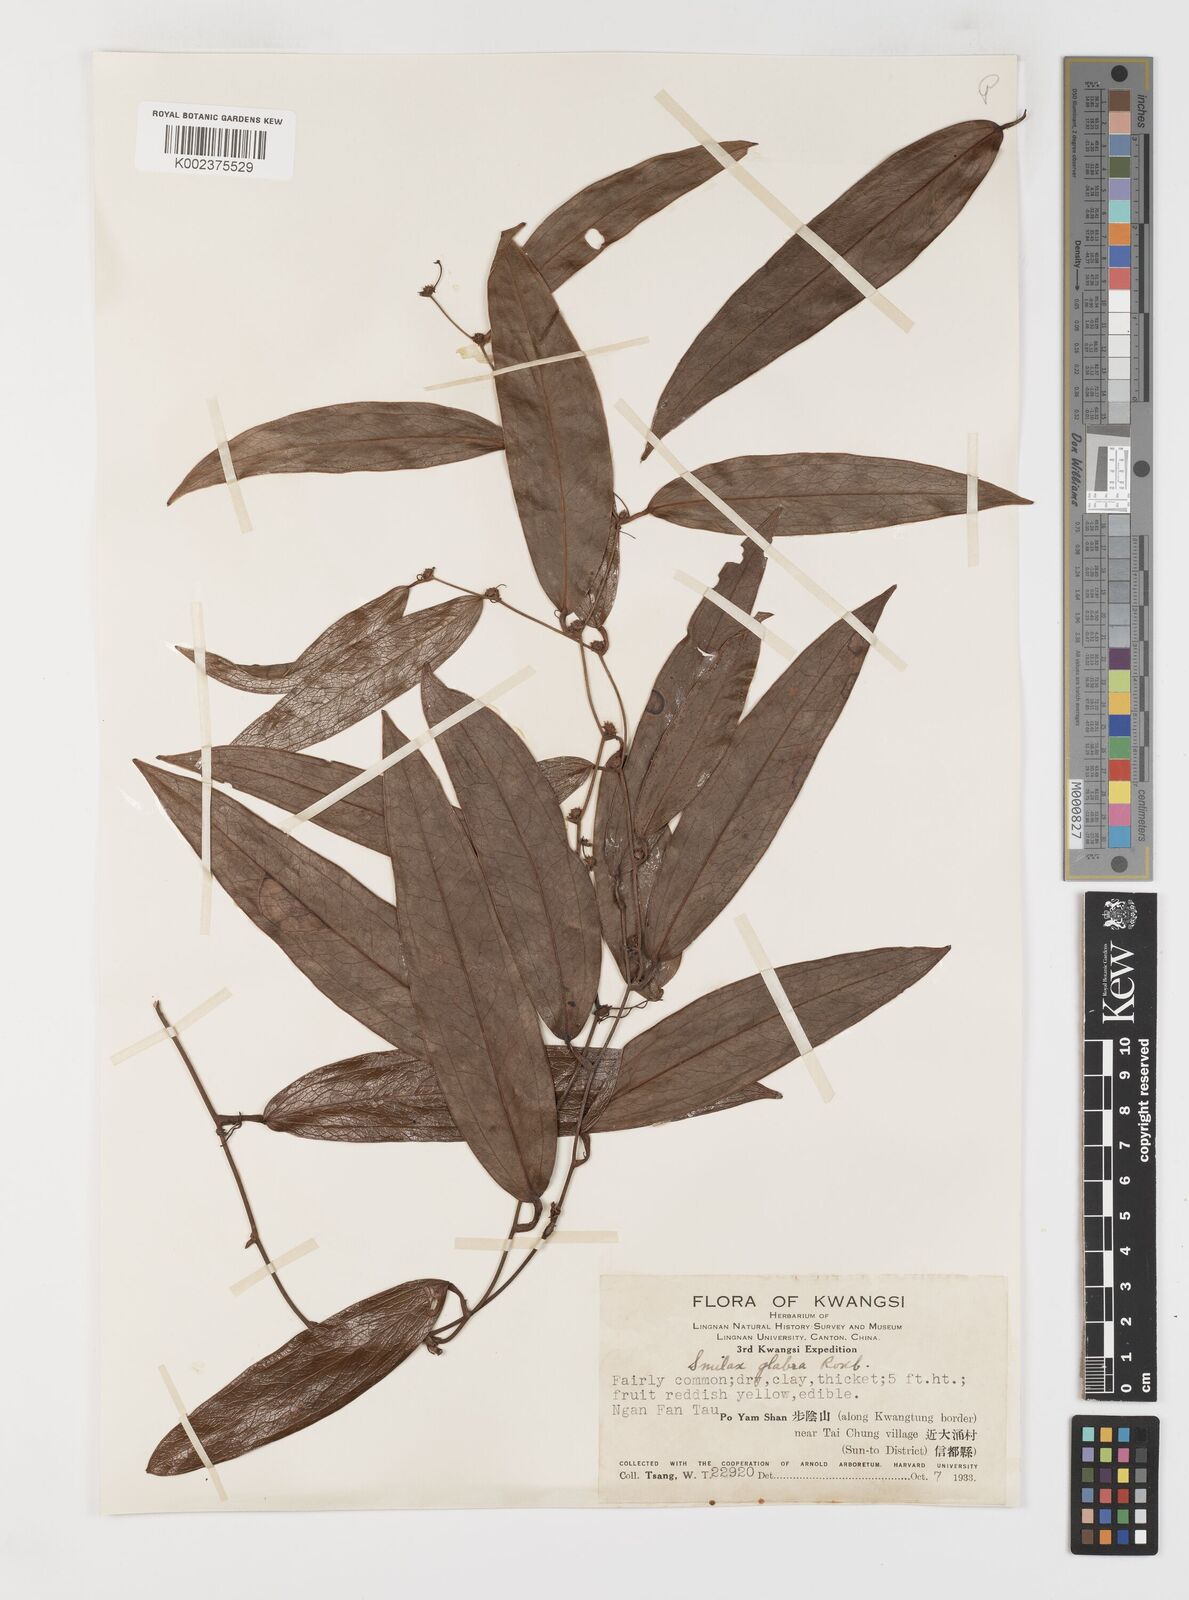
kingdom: Plantae
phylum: Tracheophyta
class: Liliopsida
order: Liliales
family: Smilacaceae
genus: Smilax
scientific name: Smilax laevis
